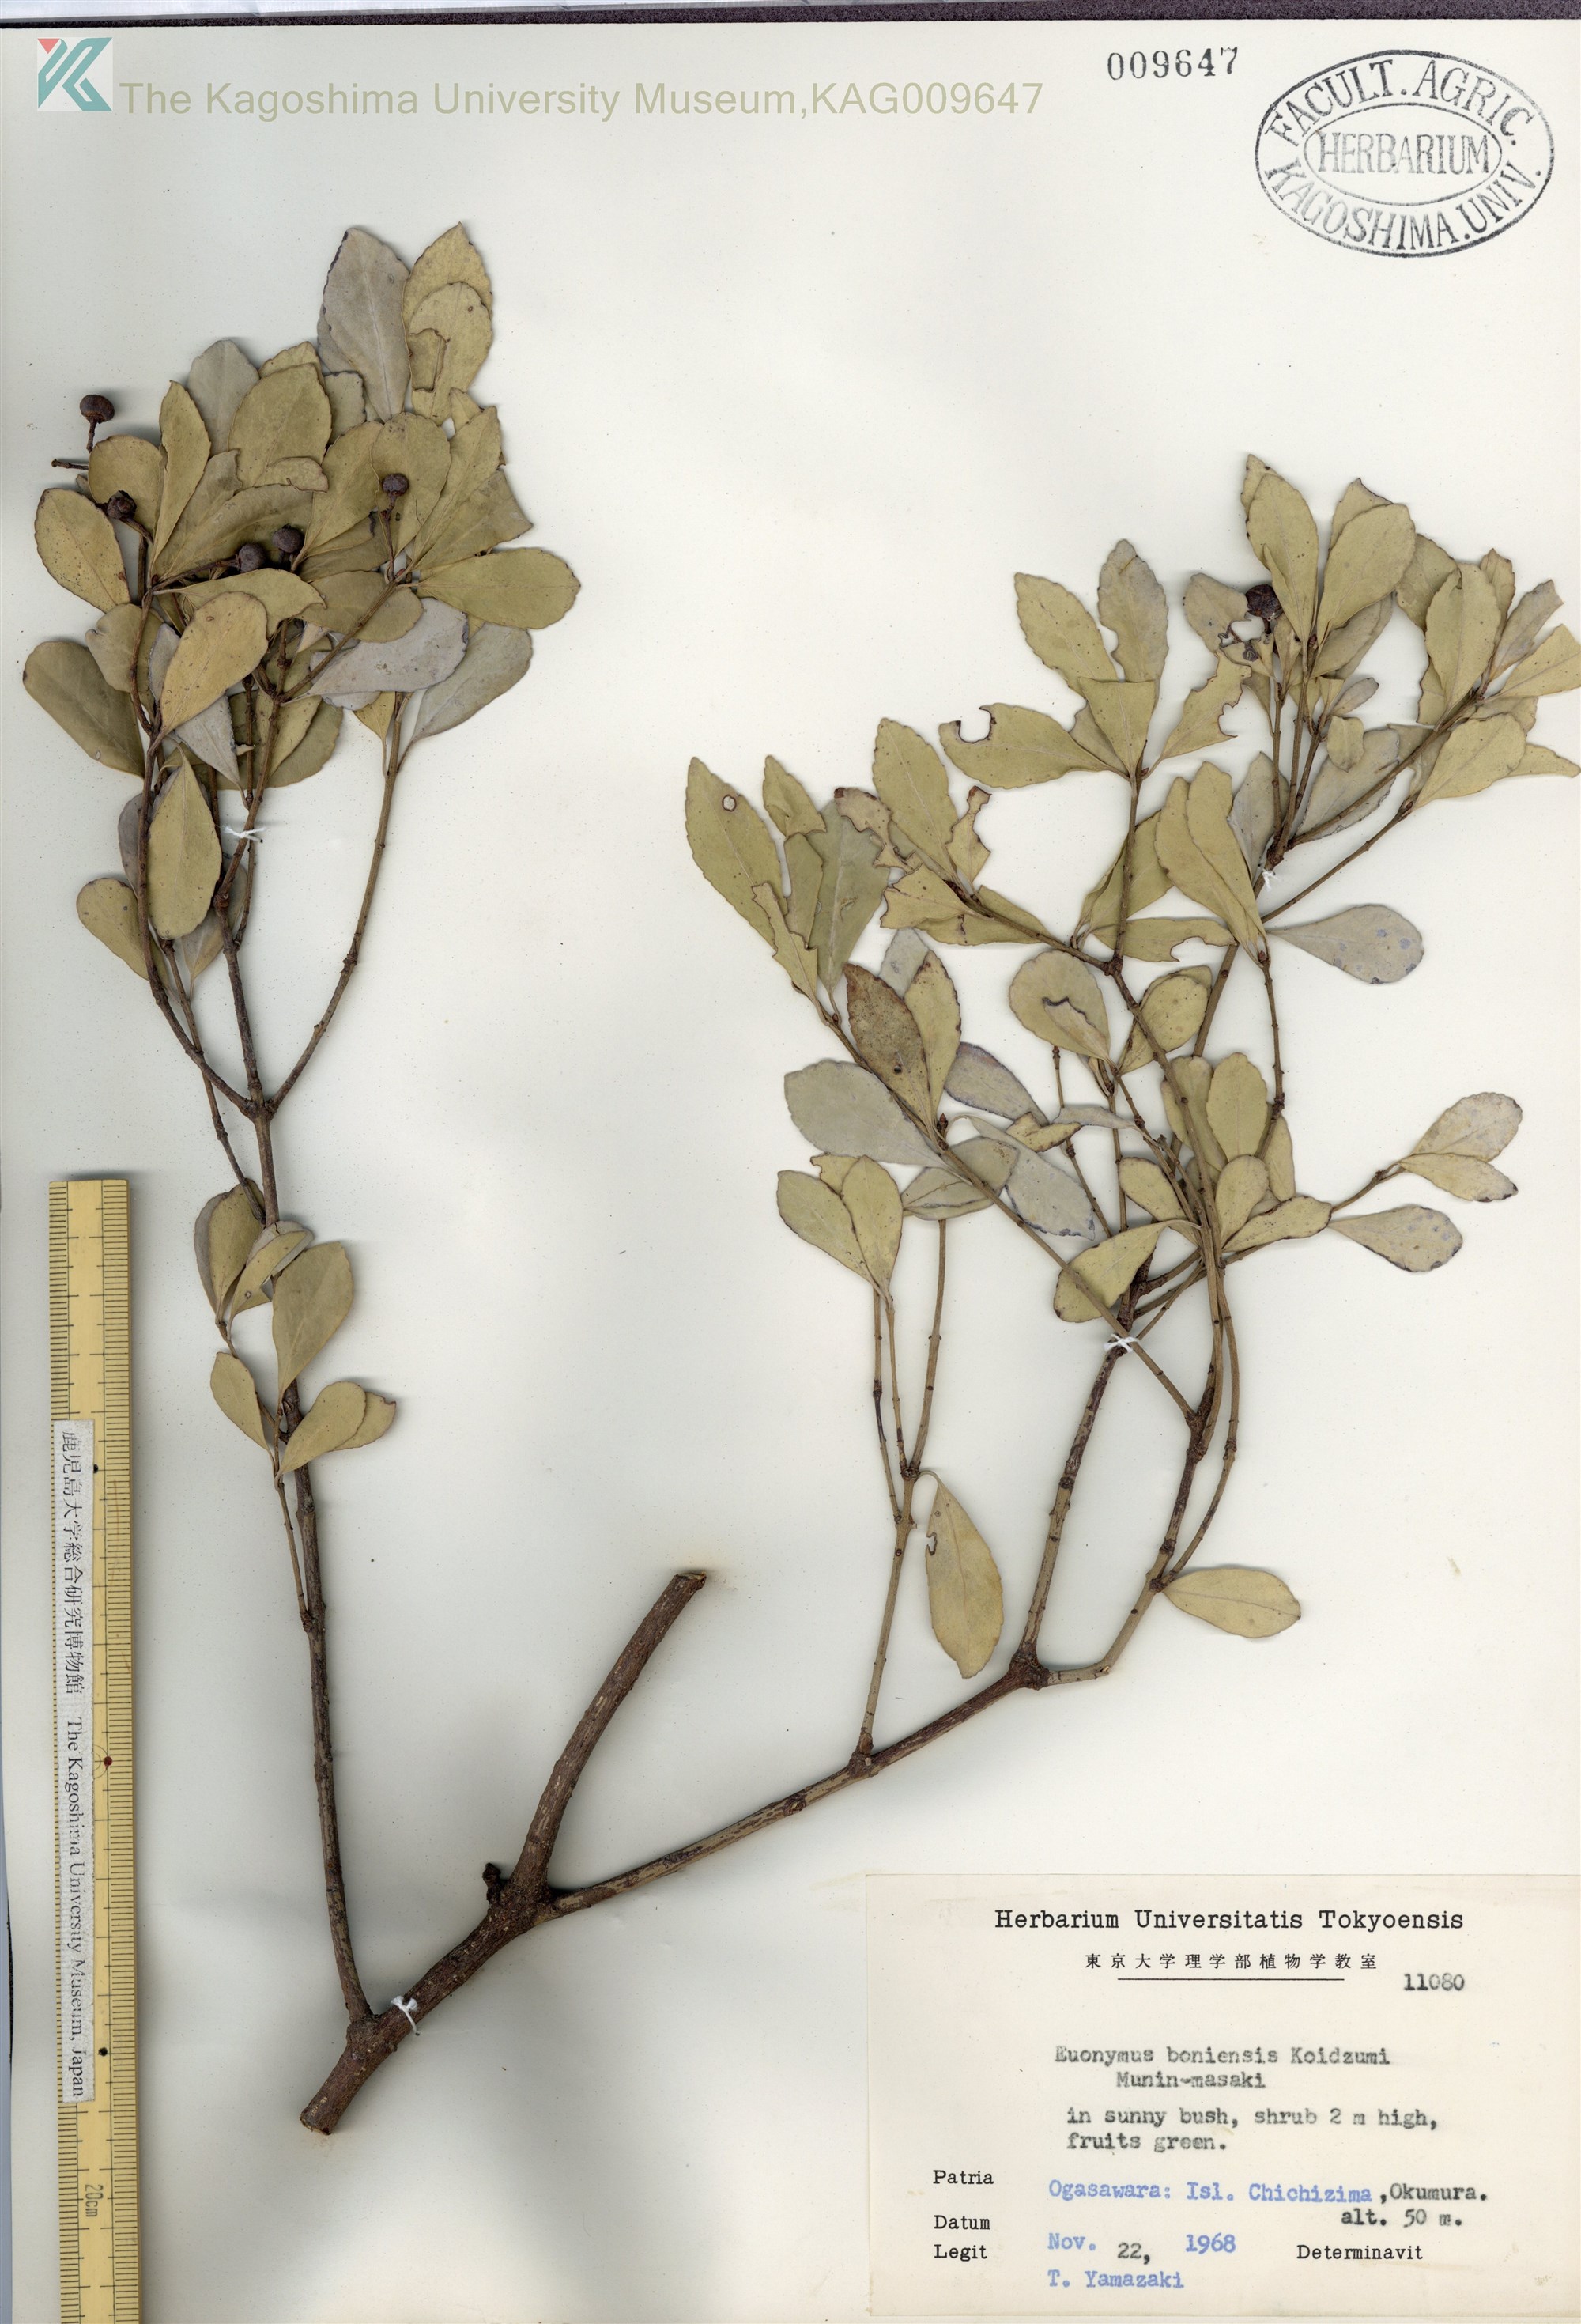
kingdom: Plantae
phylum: Tracheophyta
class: Magnoliopsida
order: Celastrales
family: Celastraceae
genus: Euonymus
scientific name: Euonymus japonicus
